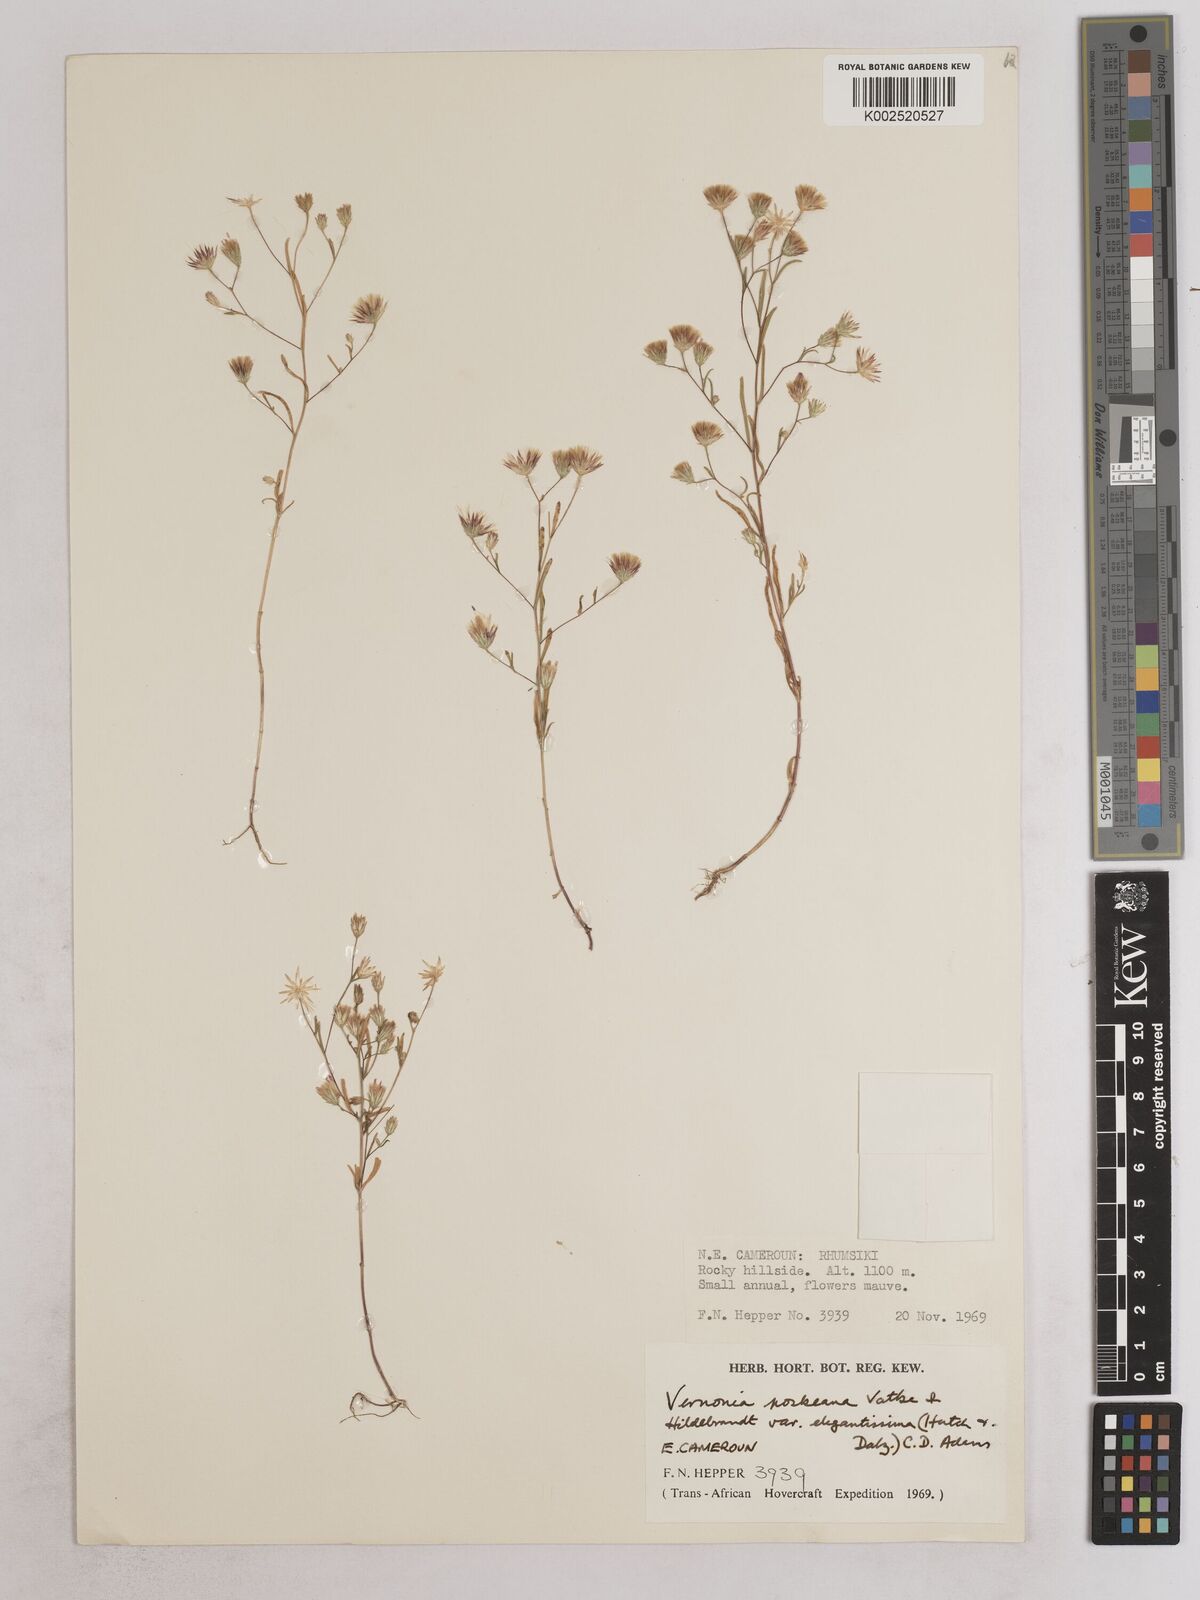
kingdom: Plantae
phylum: Tracheophyta
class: Magnoliopsida
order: Asterales
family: Asteraceae
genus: Crystallopollen
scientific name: Crystallopollen angustifolium
